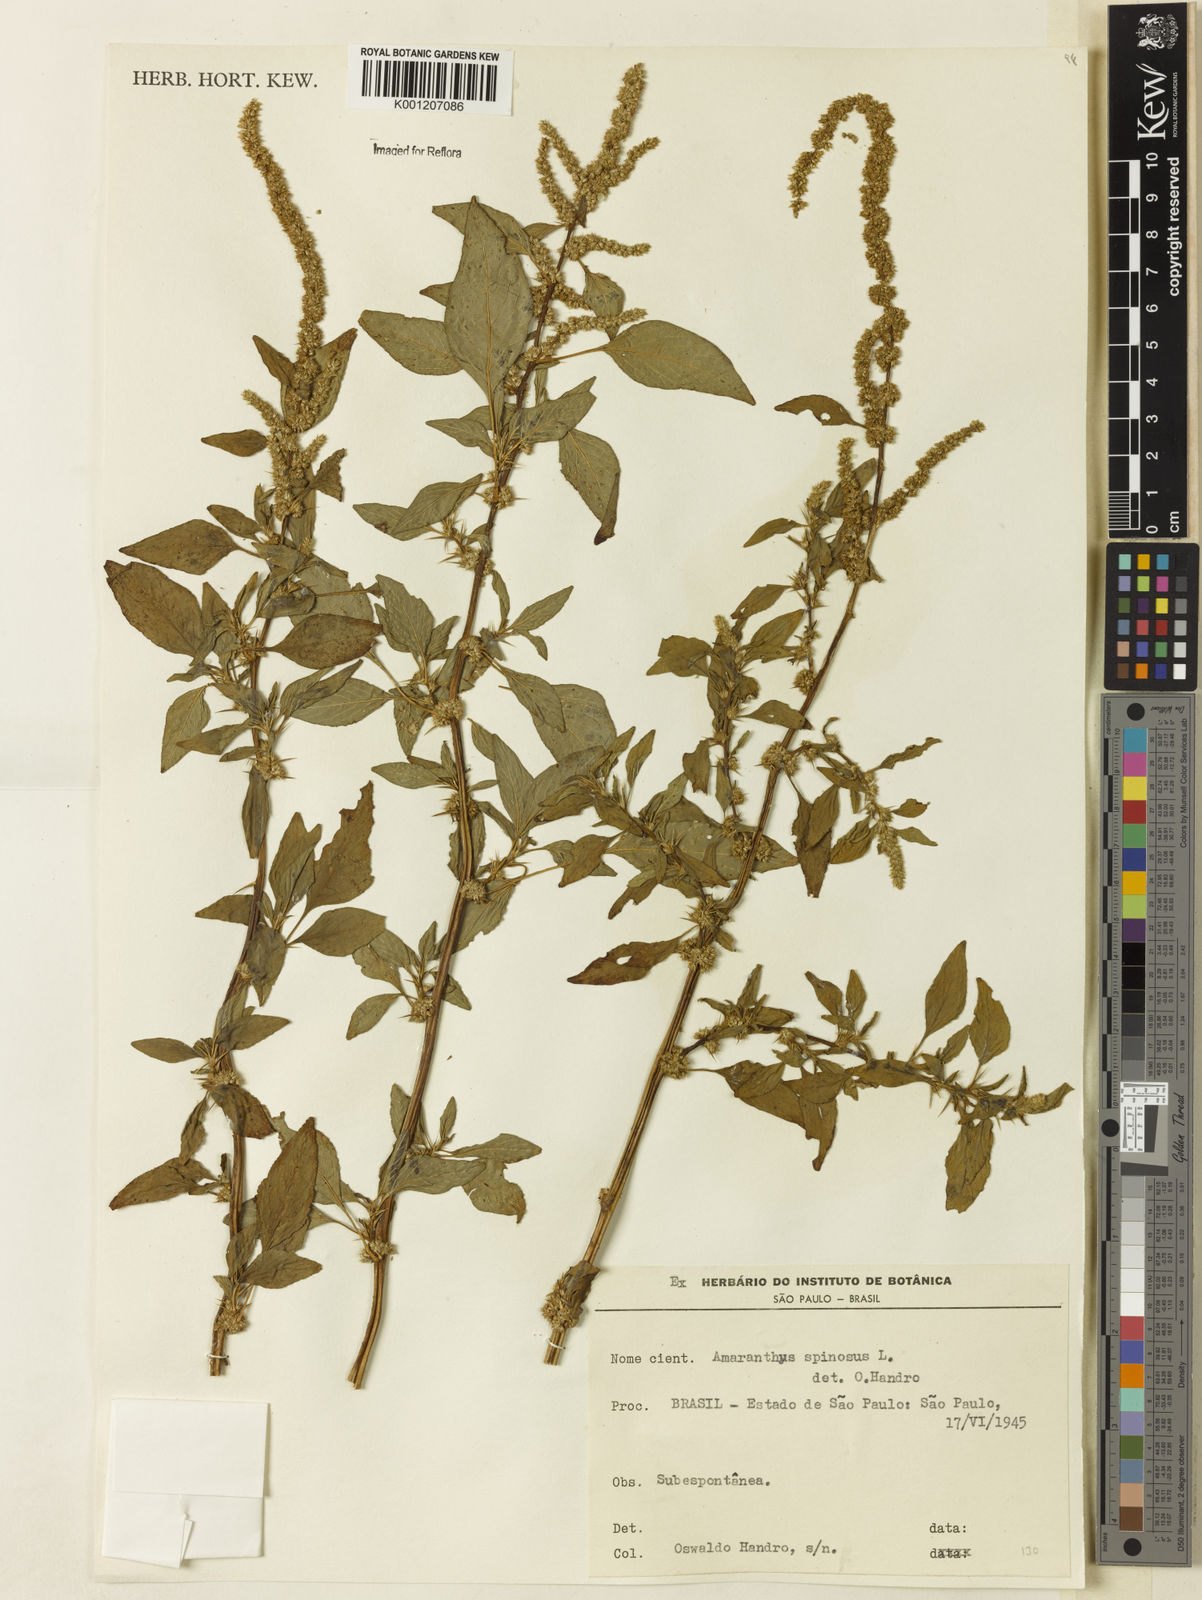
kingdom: Plantae
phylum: Tracheophyta
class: Magnoliopsida
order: Caryophyllales
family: Amaranthaceae
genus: Amaranthus
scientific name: Amaranthus spinosus
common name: Spiny amaranth
